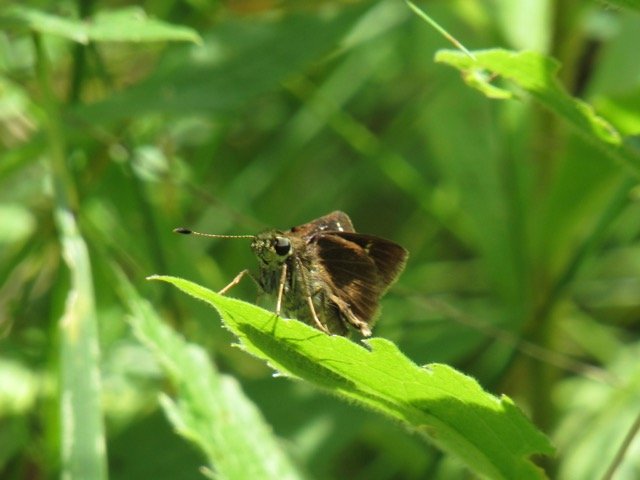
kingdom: Animalia
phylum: Arthropoda
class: Insecta
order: Lepidoptera
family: Hesperiidae
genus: Vernia
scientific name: Vernia verna
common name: Little Glassywing
